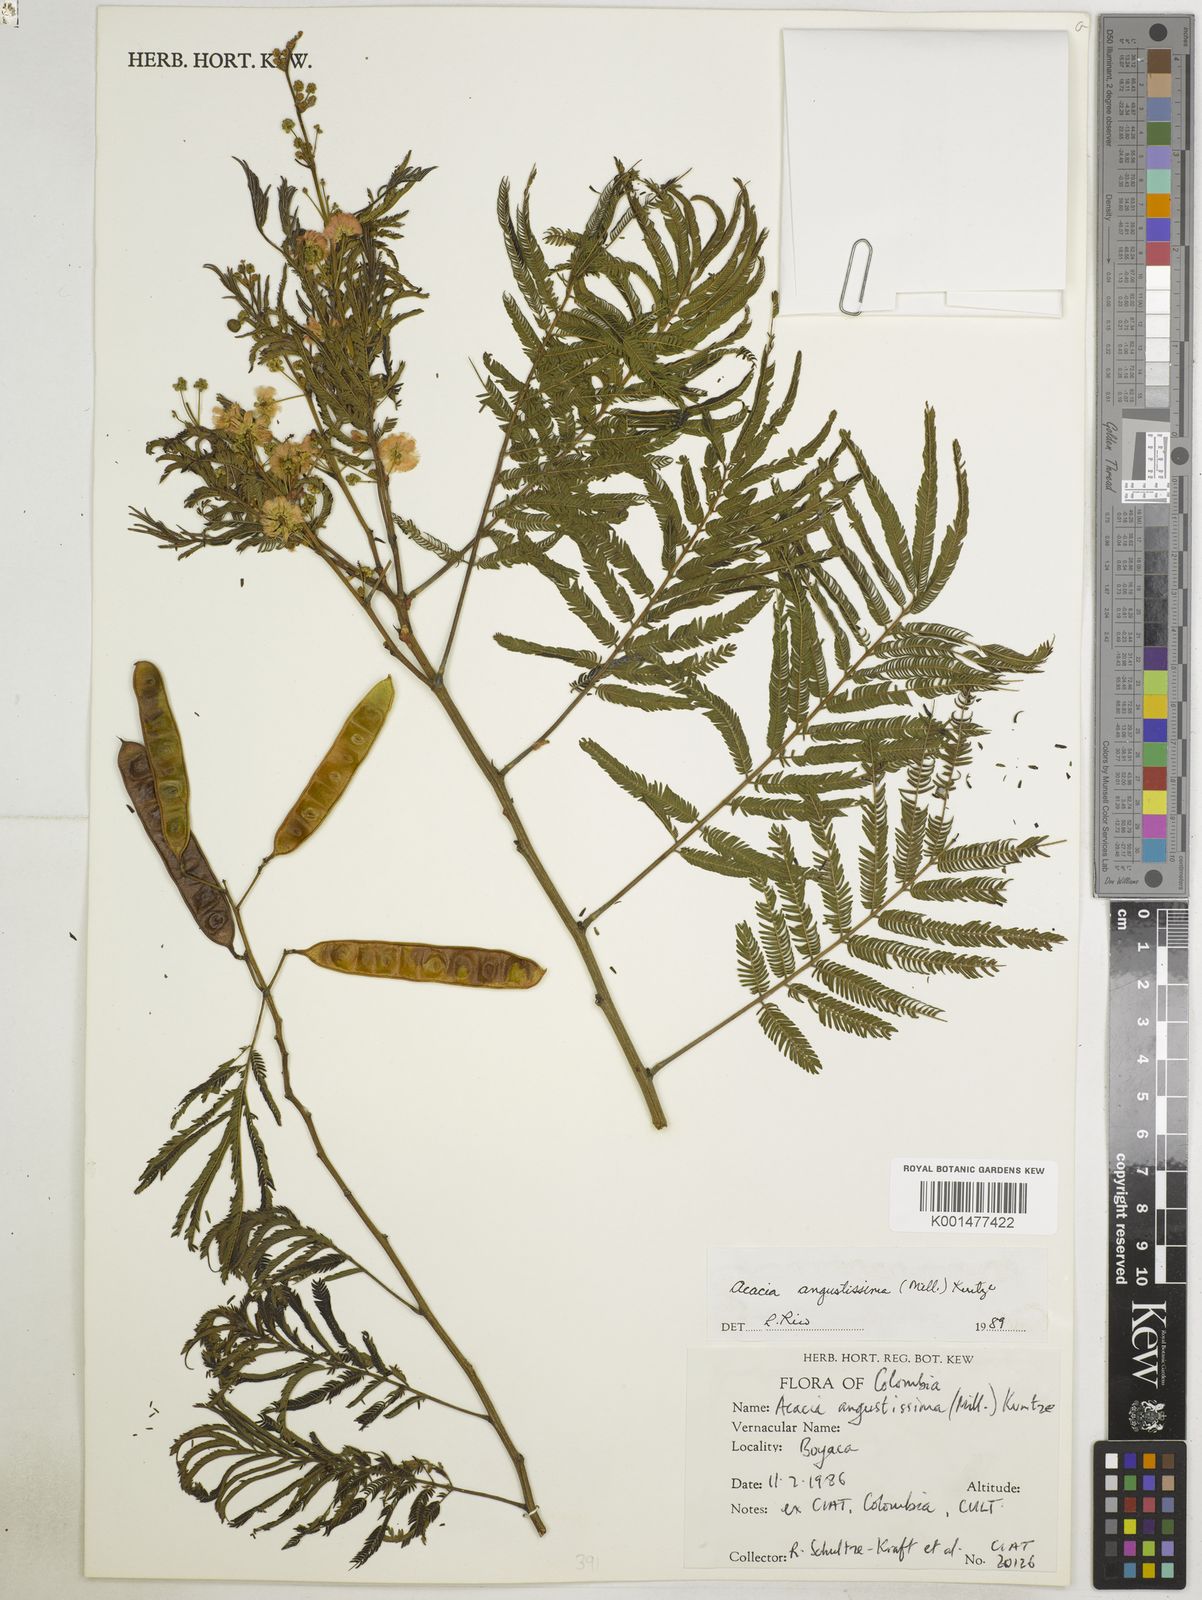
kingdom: Plantae
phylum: Tracheophyta
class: Magnoliopsida
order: Fabales
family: Fabaceae
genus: Acaciella
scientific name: Acaciella angustissima
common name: Prairie acacia
